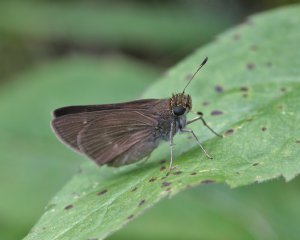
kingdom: Animalia
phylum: Arthropoda
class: Insecta
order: Lepidoptera
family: Hesperiidae
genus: Polites
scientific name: Polites egeremet
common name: Northern Broken-Dash
